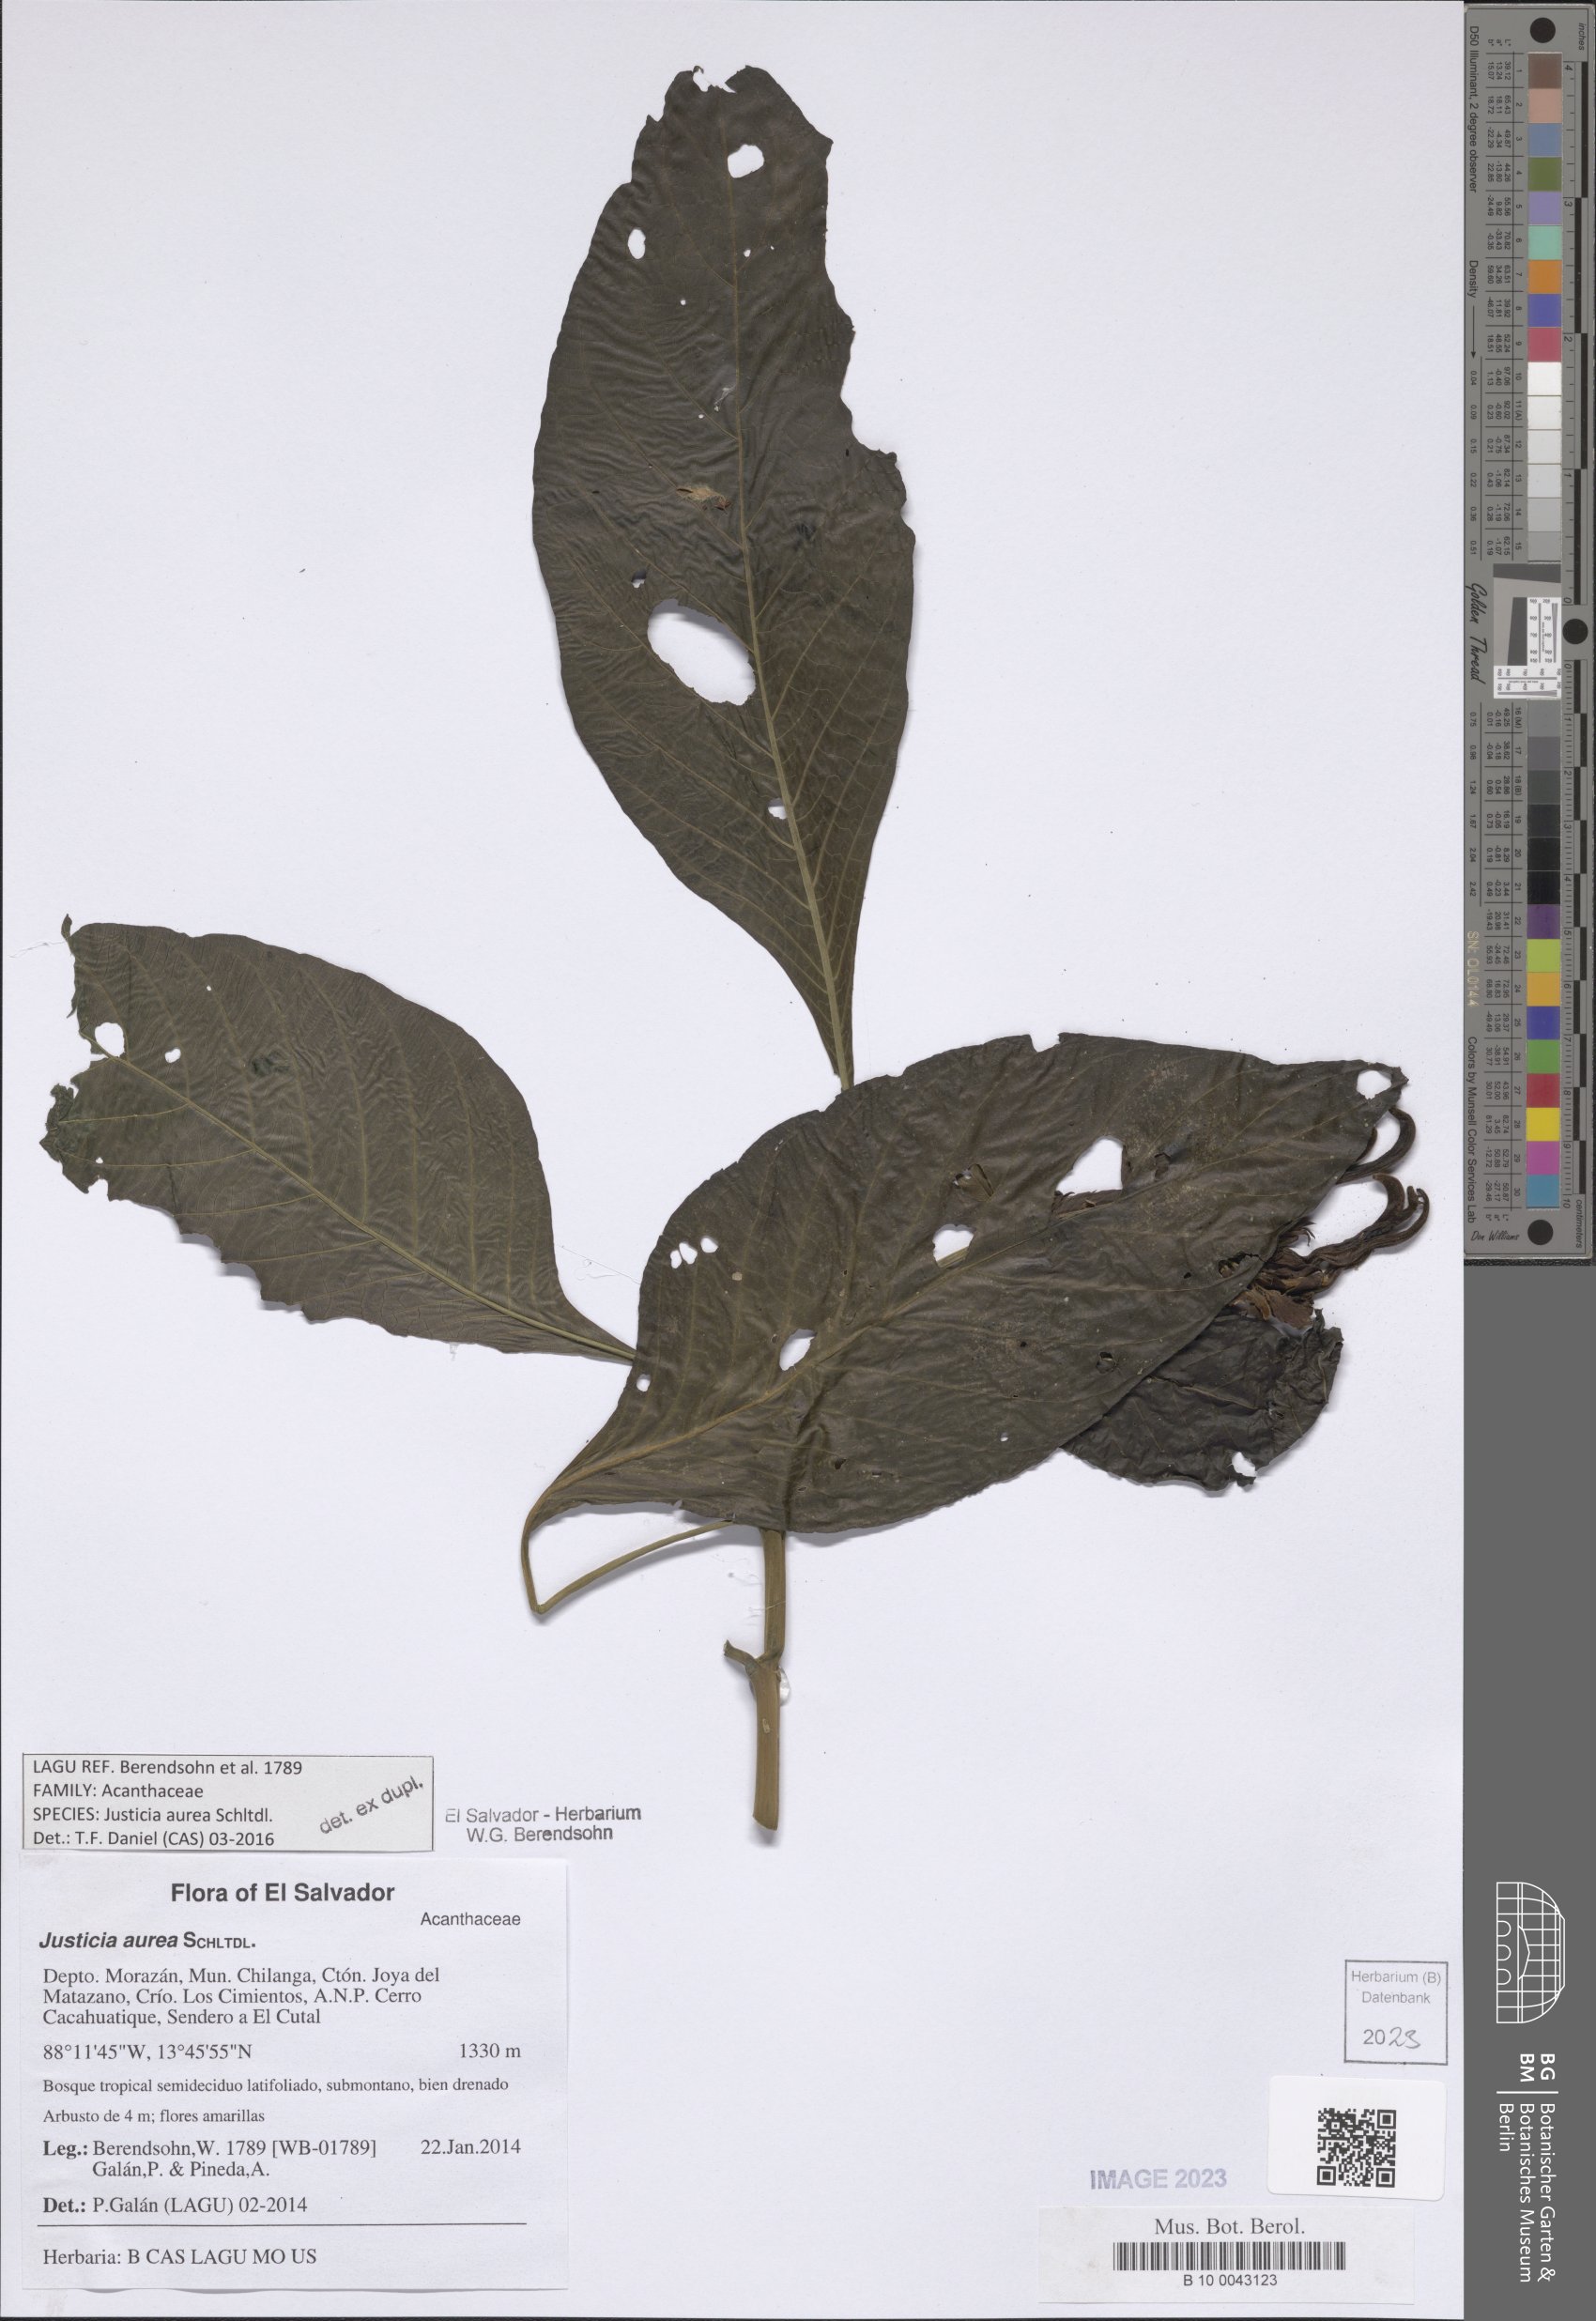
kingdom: Plantae
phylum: Tracheophyta
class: Magnoliopsida
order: Lamiales
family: Acanthaceae
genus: Justicia
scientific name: Justicia aurea
